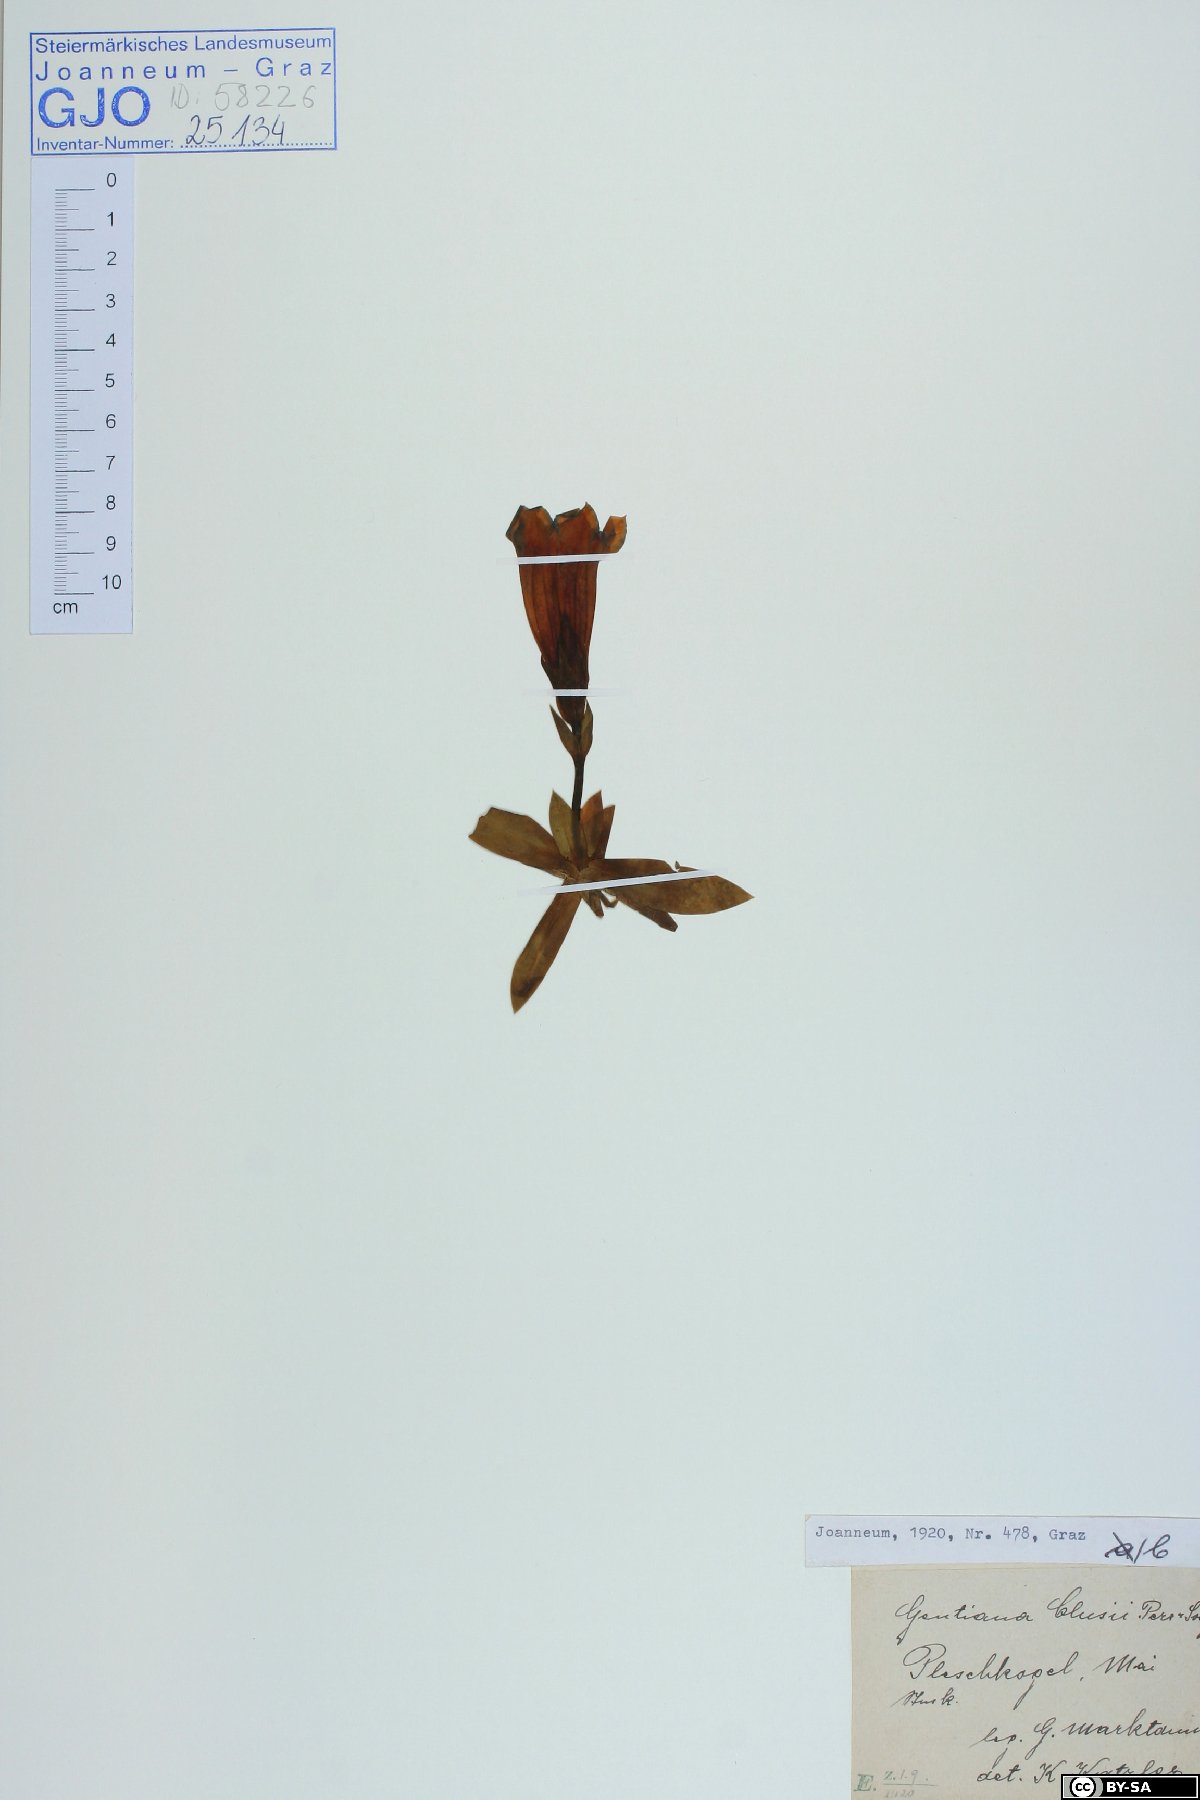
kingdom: Plantae
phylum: Tracheophyta
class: Magnoliopsida
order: Gentianales
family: Gentianaceae
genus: Gentiana
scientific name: Gentiana clusii
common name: Trumpet gentian
